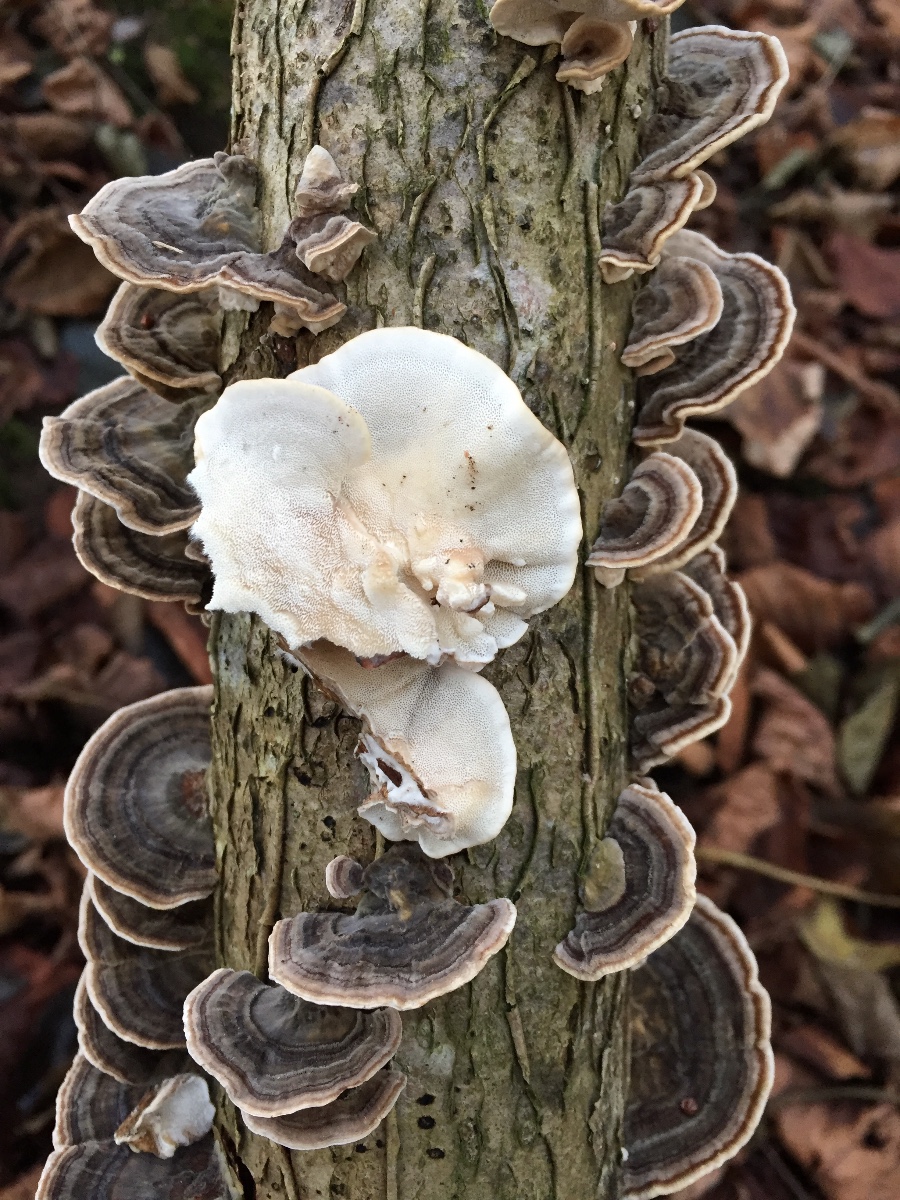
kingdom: Fungi
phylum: Basidiomycota
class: Agaricomycetes
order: Polyporales
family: Polyporaceae
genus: Trametes
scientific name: Trametes versicolor
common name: broget læderporesvamp
